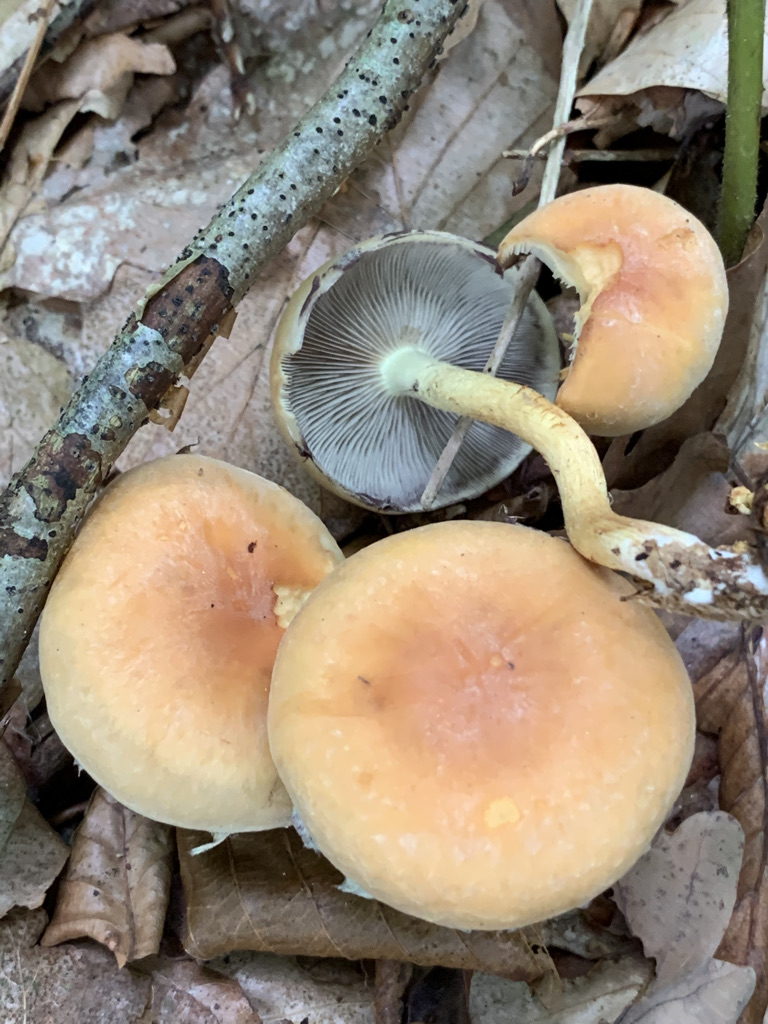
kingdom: Fungi
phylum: Basidiomycota
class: Agaricomycetes
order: Agaricales
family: Strophariaceae
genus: Hypholoma
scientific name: Hypholoma lateritium
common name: teglrød svovlhat
